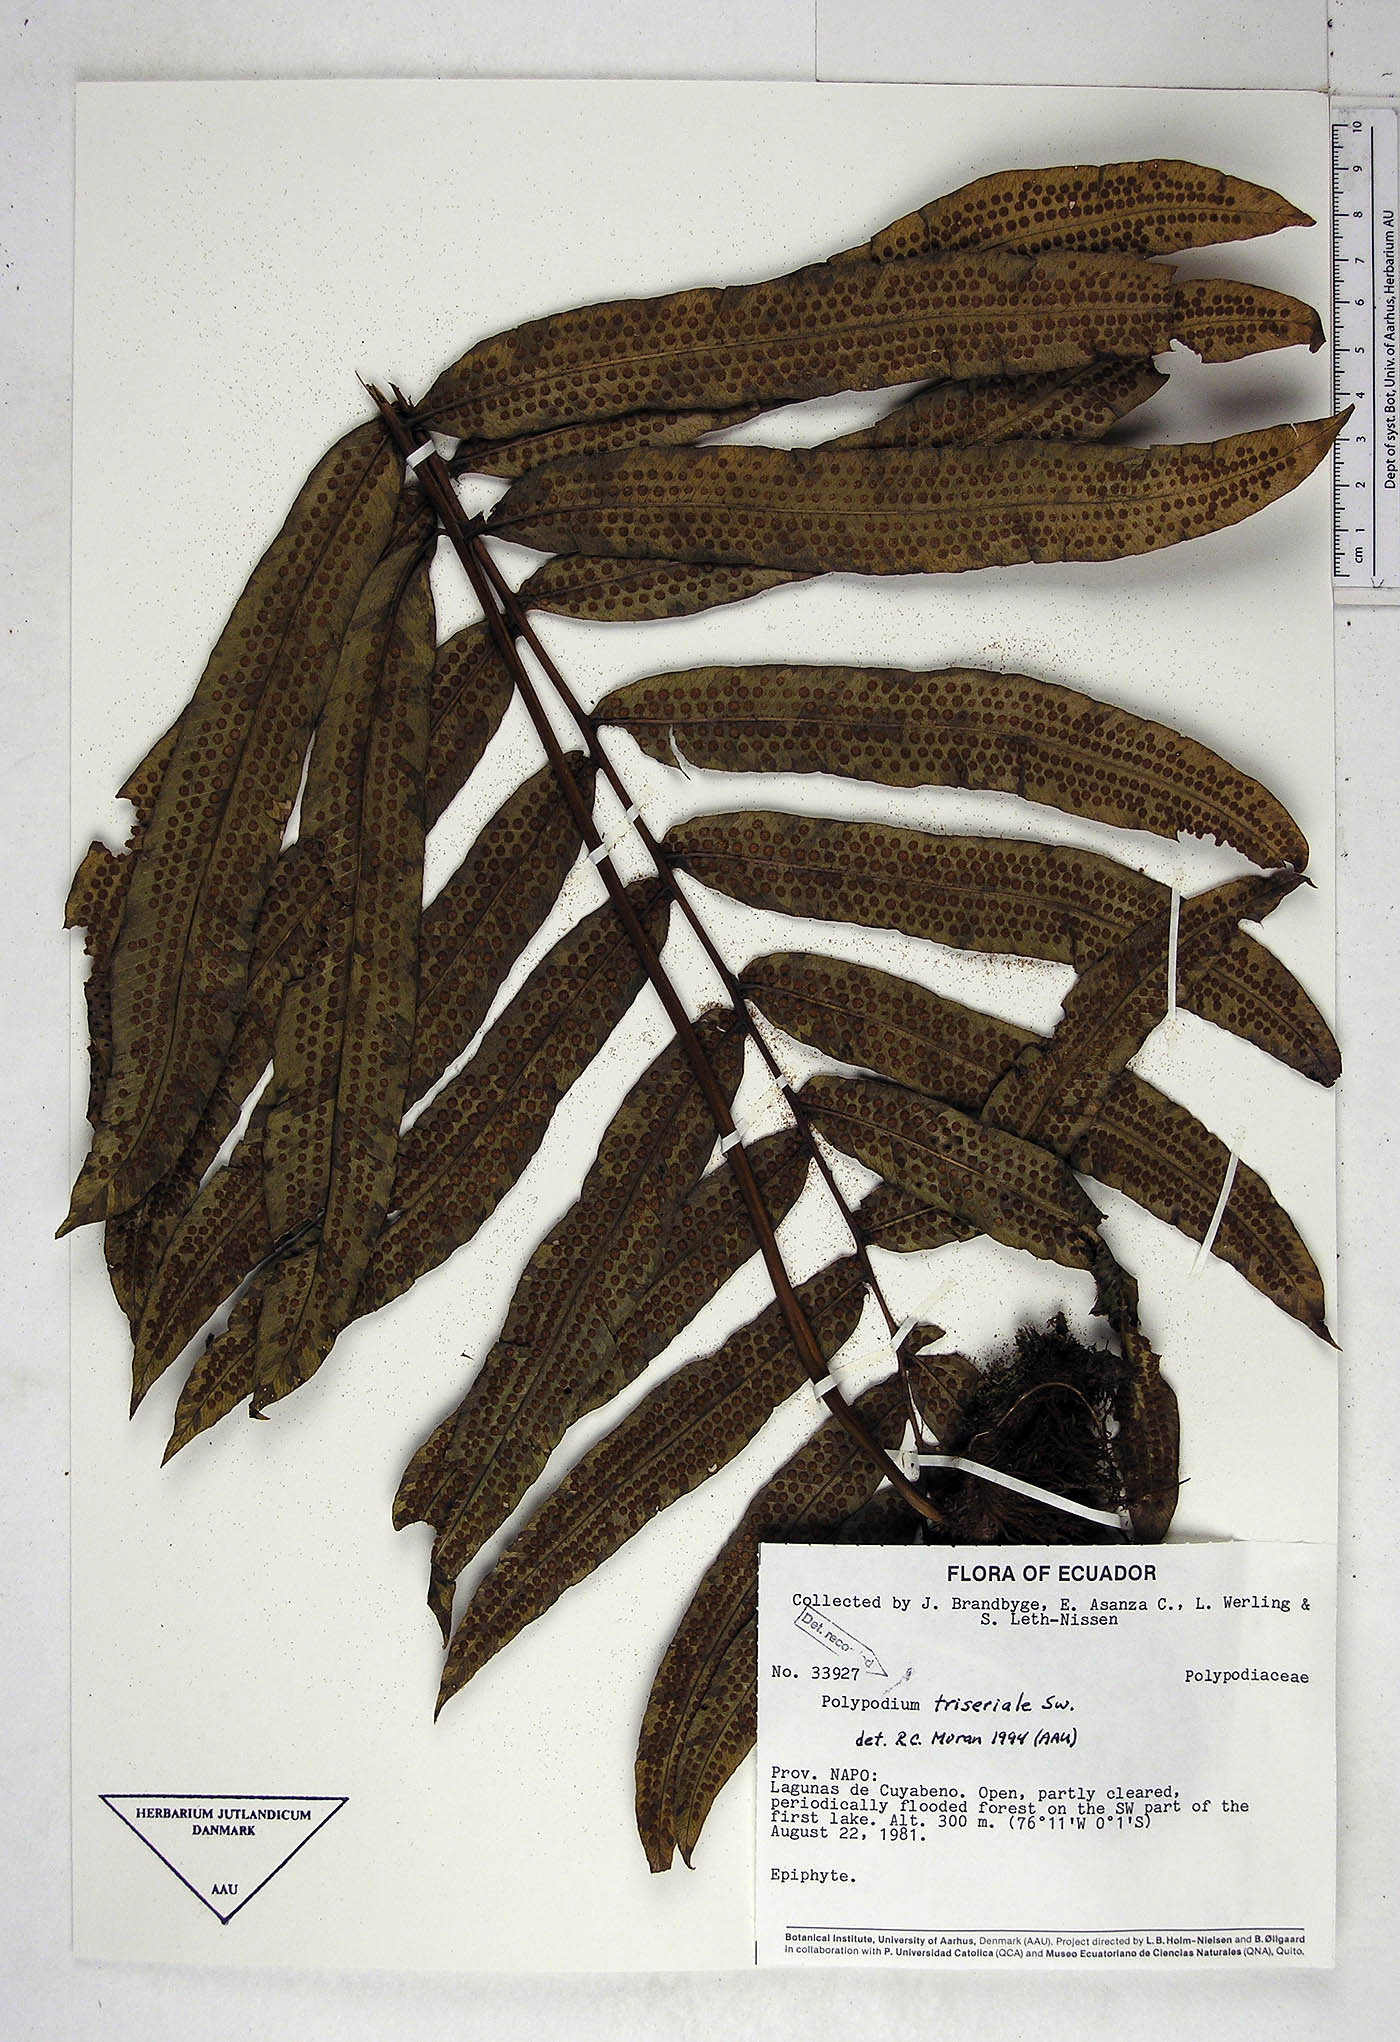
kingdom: Plantae
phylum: Tracheophyta
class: Polypodiopsida
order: Polypodiales
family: Polypodiaceae
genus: Serpocaulon
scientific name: Serpocaulon triseriale
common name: Angle-vein fern
